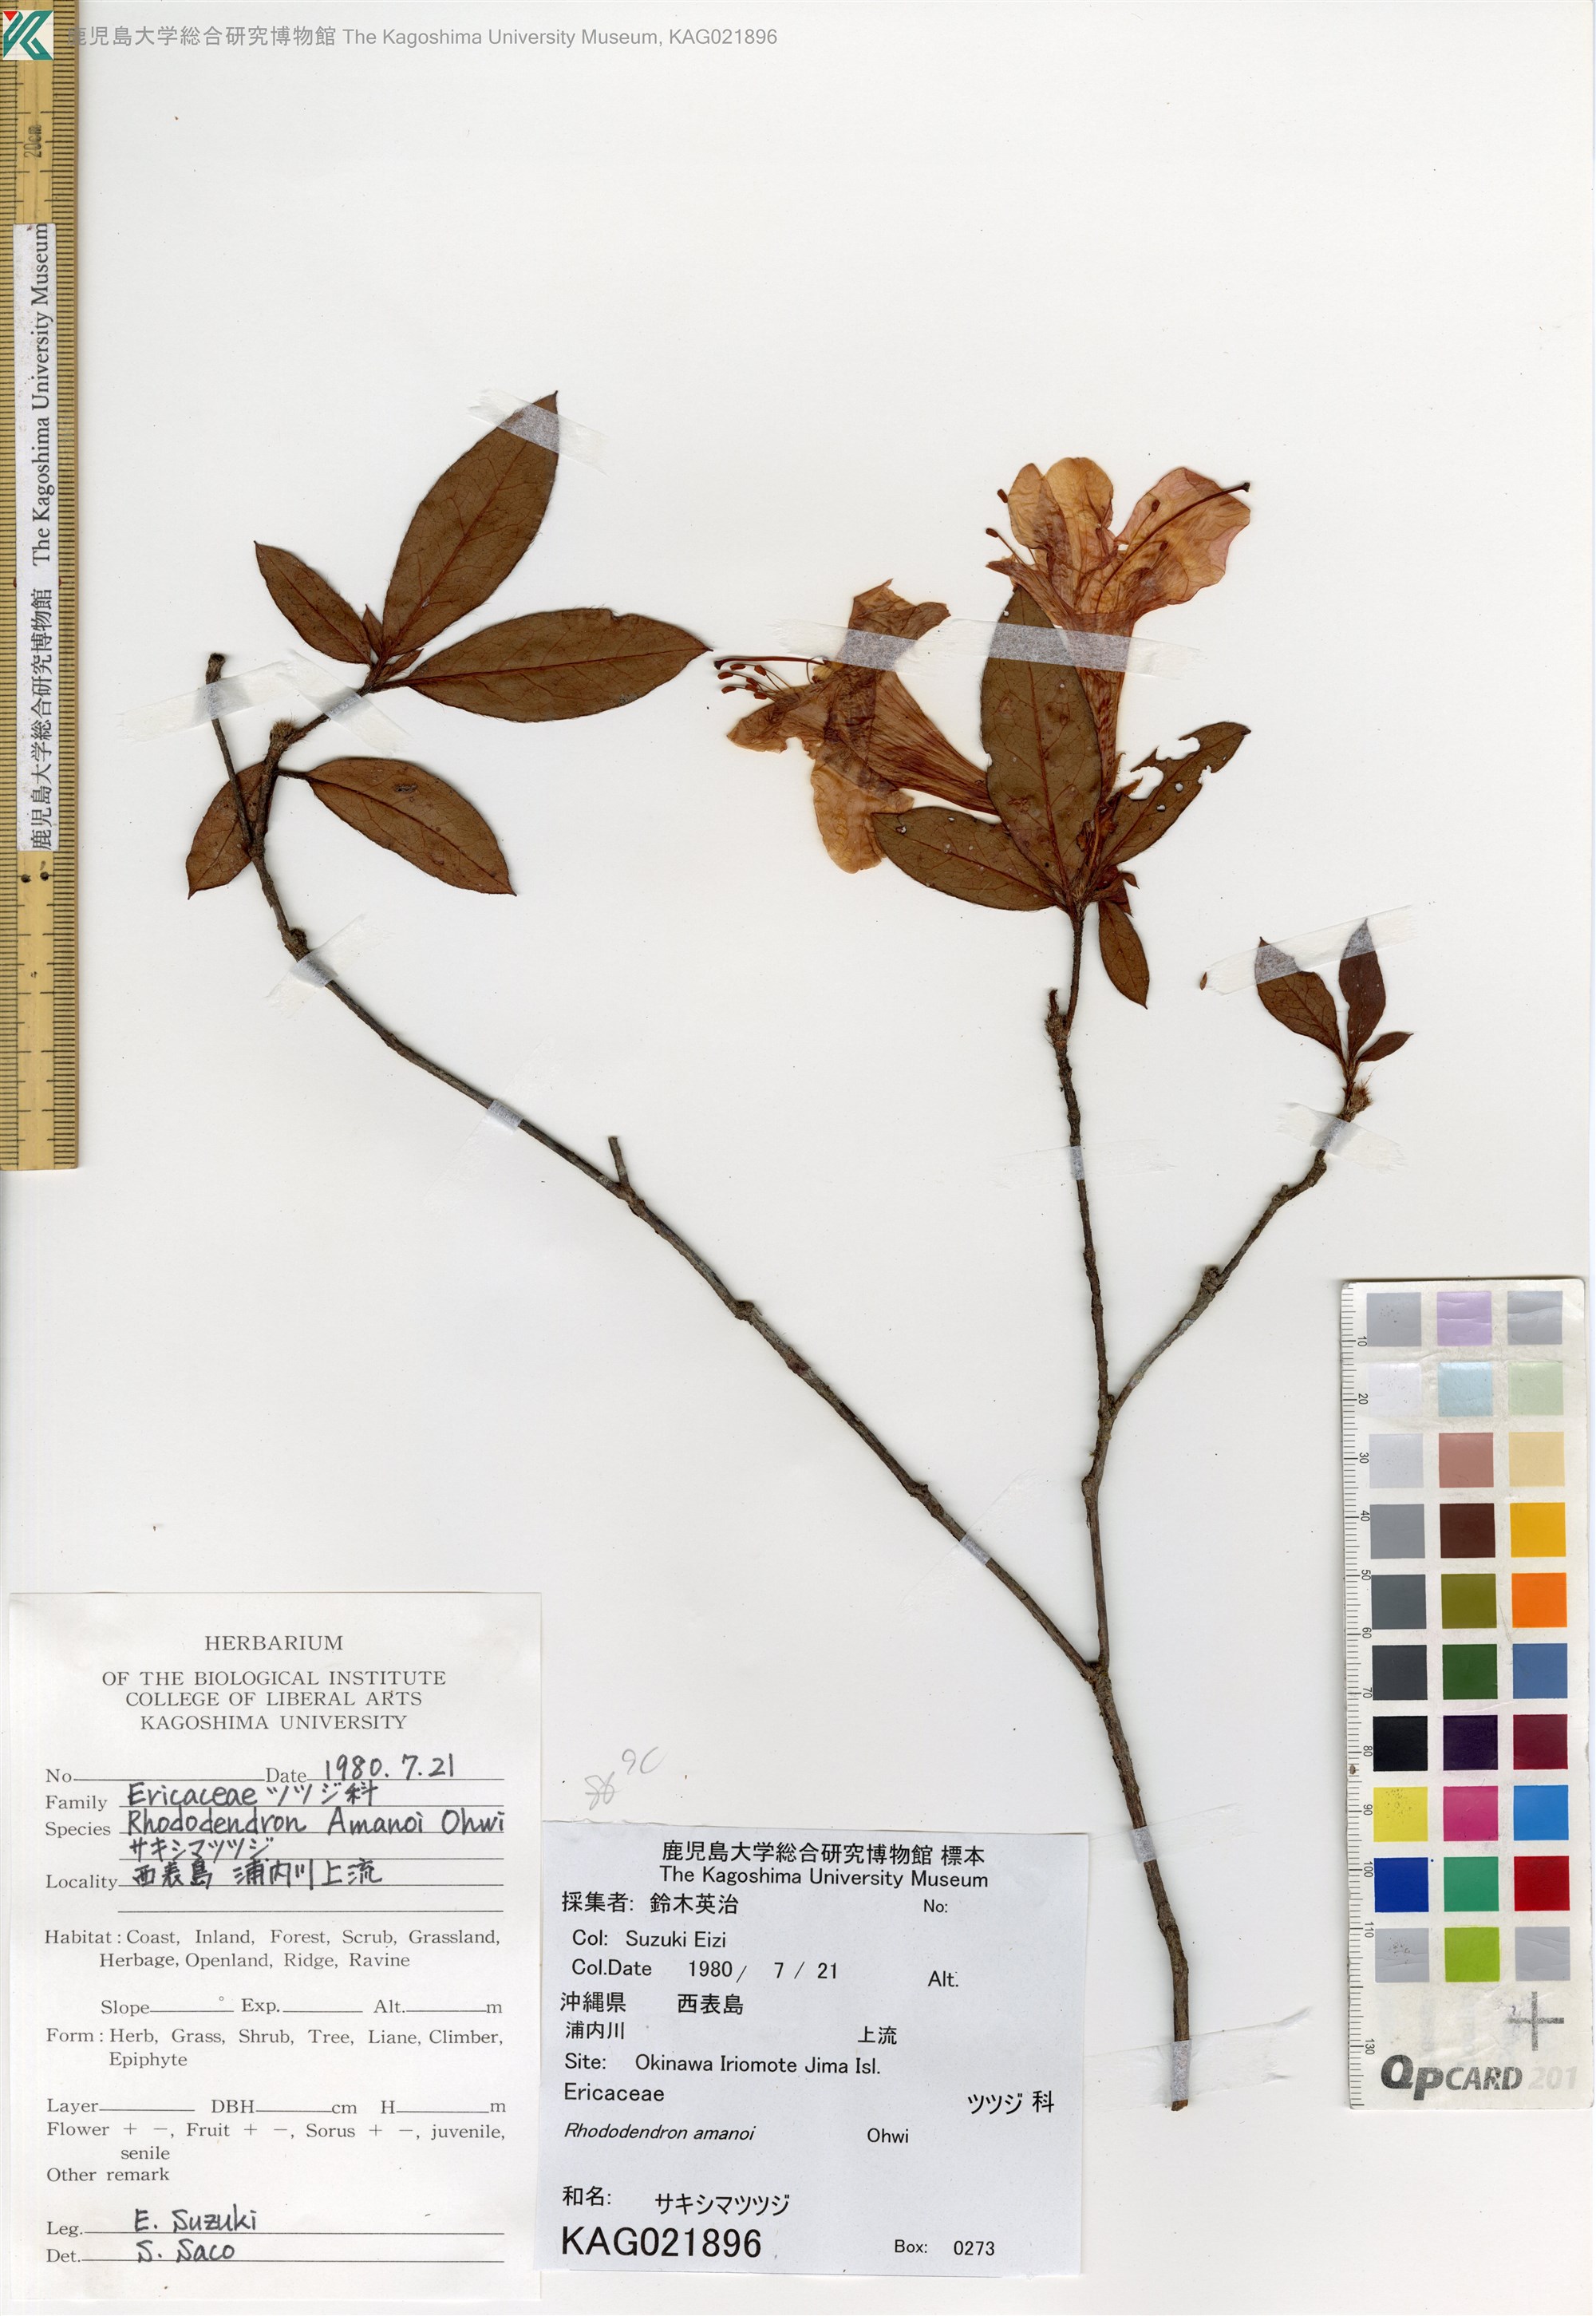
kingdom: Plantae
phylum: Tracheophyta
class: Magnoliopsida
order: Ericales
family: Ericaceae
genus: Rhododendron
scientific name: Rhododendron scabrum
